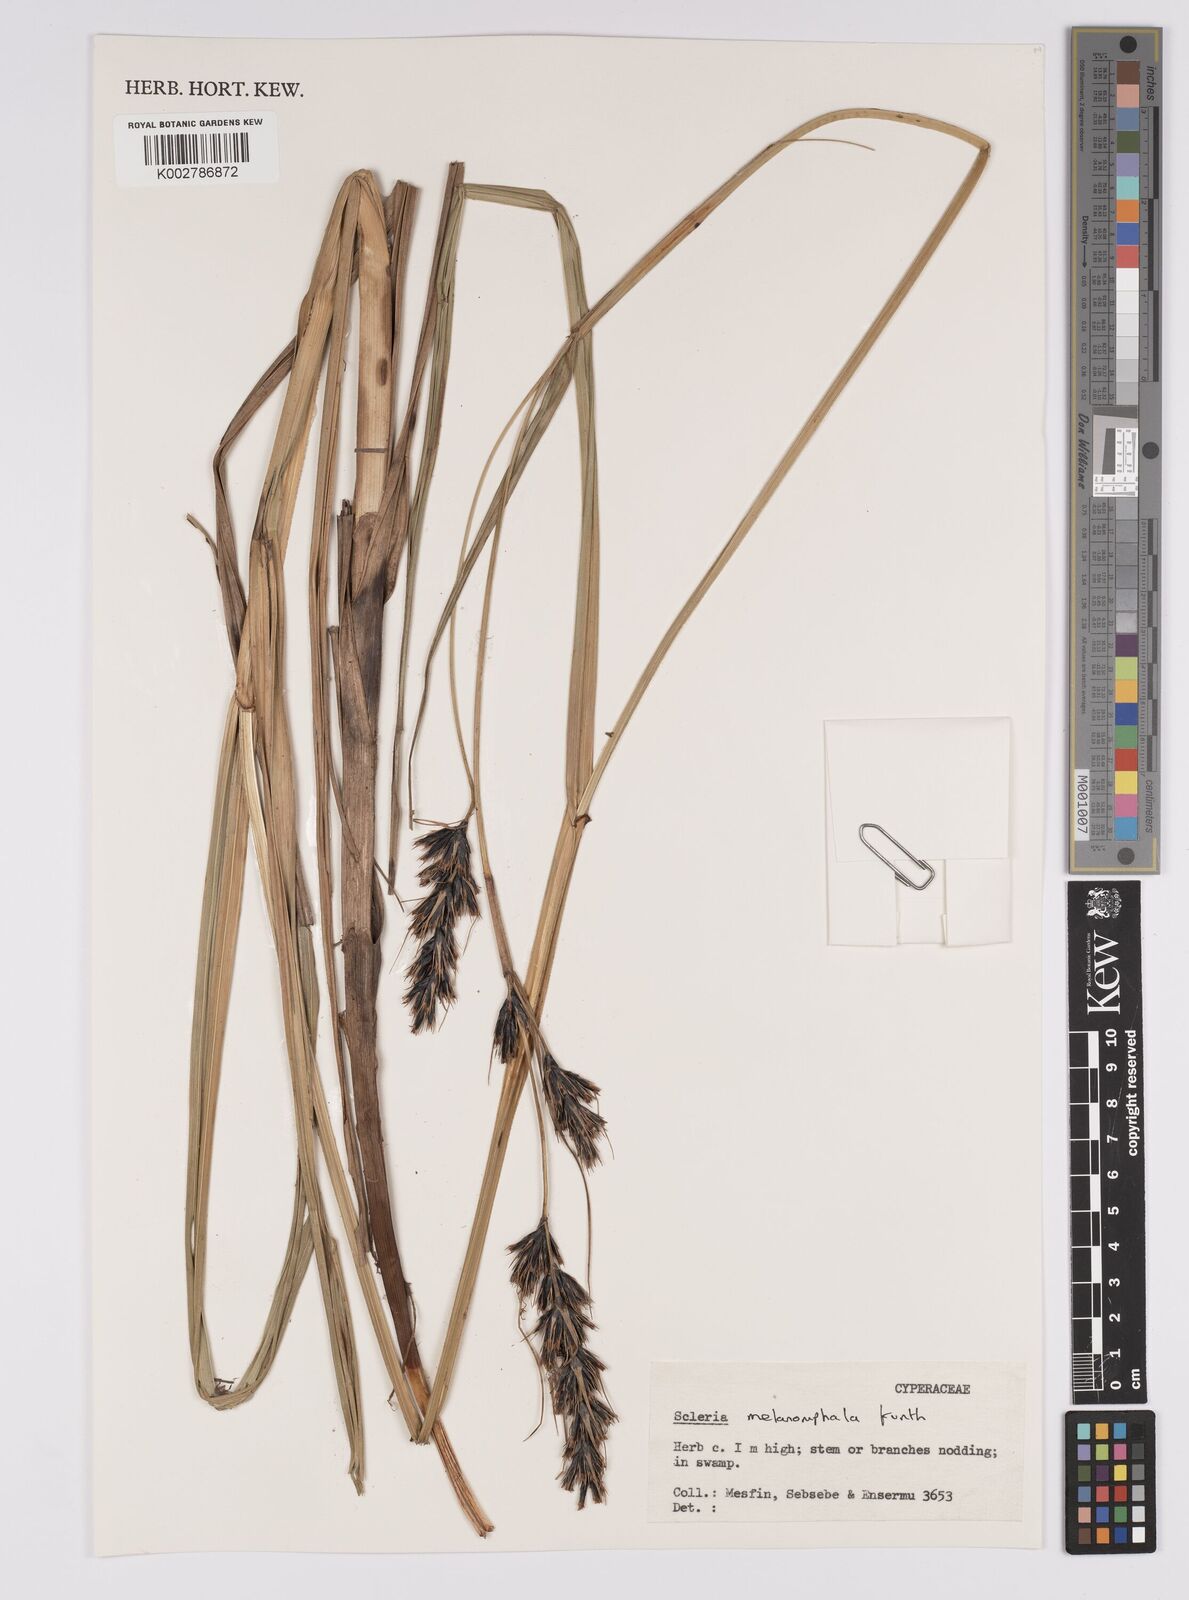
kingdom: Plantae
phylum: Tracheophyta
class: Liliopsida
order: Poales
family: Cyperaceae
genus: Scleria
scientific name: Scleria melanomphala
